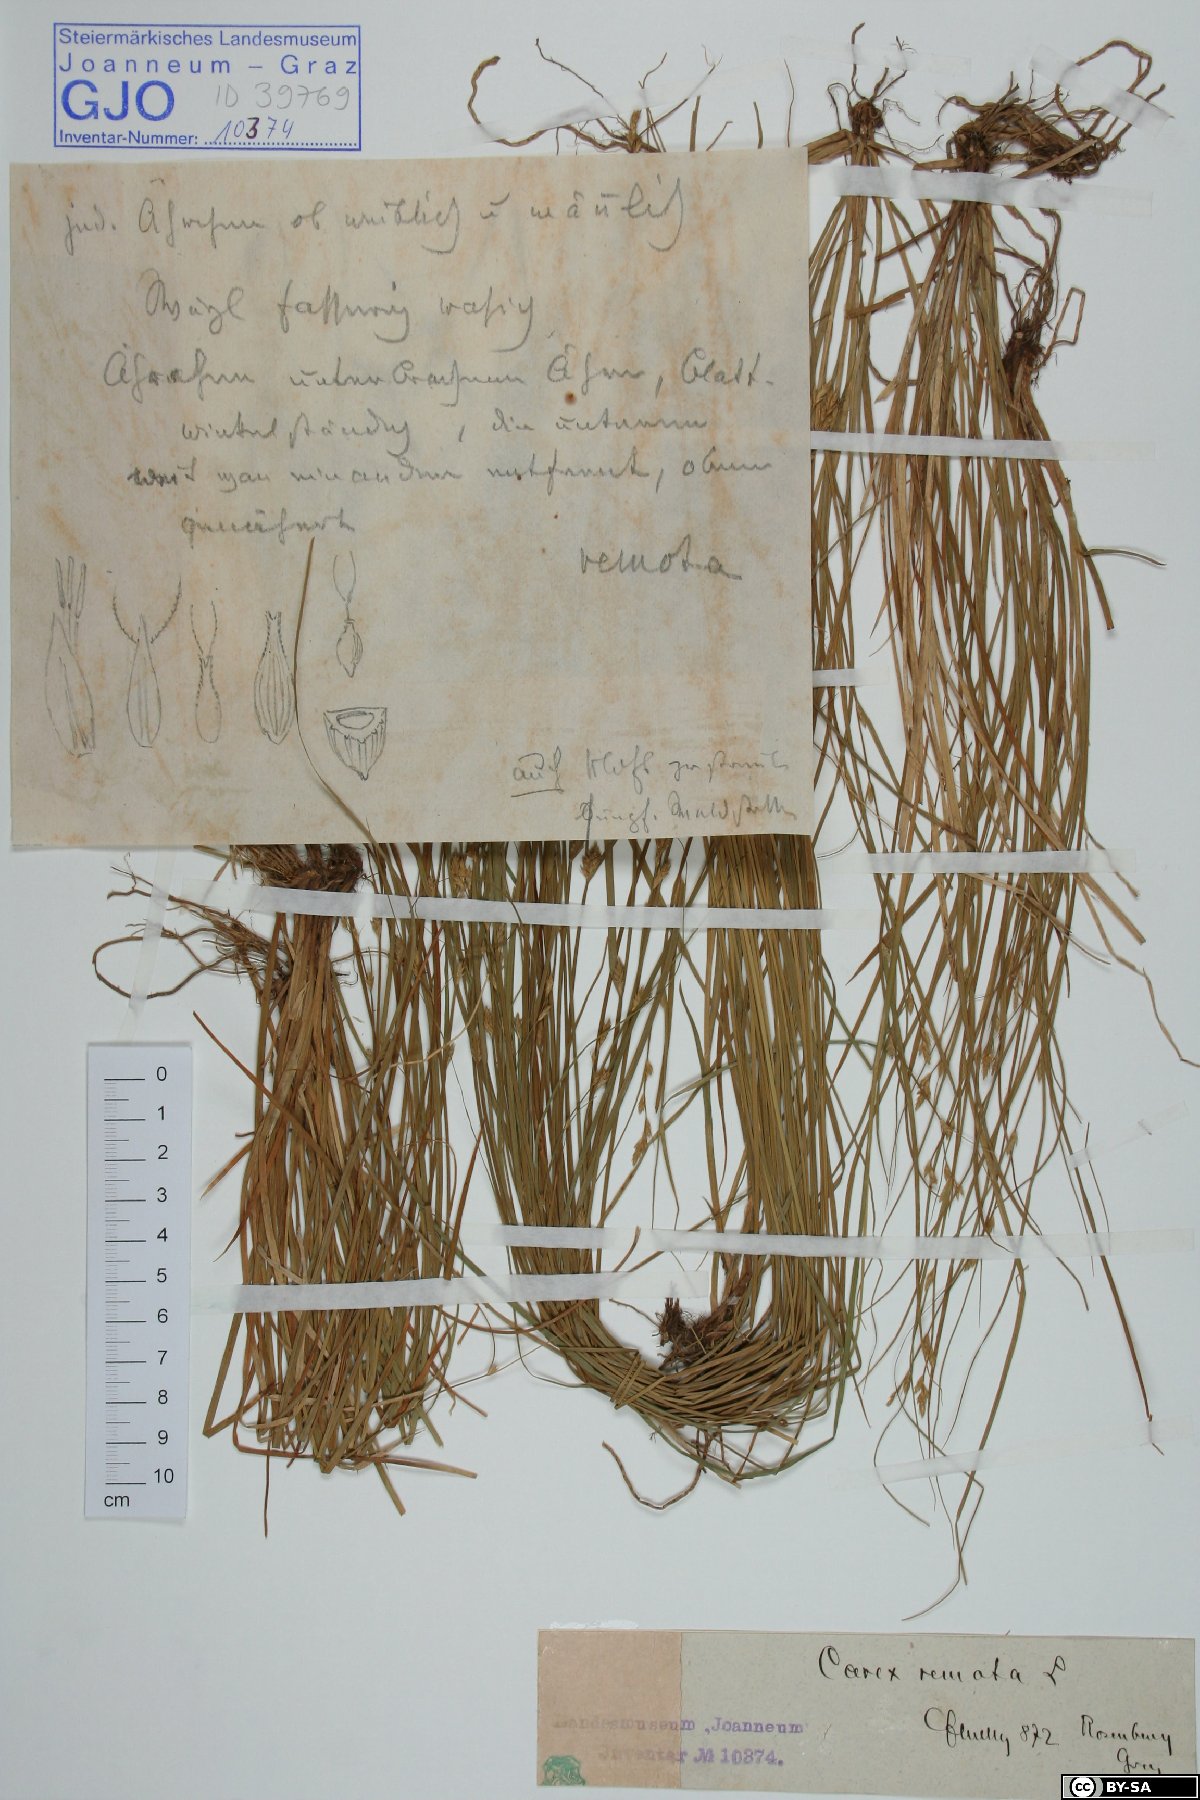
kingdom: Plantae
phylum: Tracheophyta
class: Liliopsida
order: Poales
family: Cyperaceae
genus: Carex
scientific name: Carex remota
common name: Remote sedge
